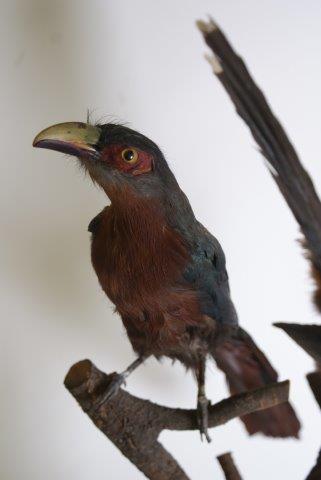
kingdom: Animalia
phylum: Chordata
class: Aves
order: Cuculiformes
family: Cuculidae
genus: Zanclostomus
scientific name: Zanclostomus curvirostris
